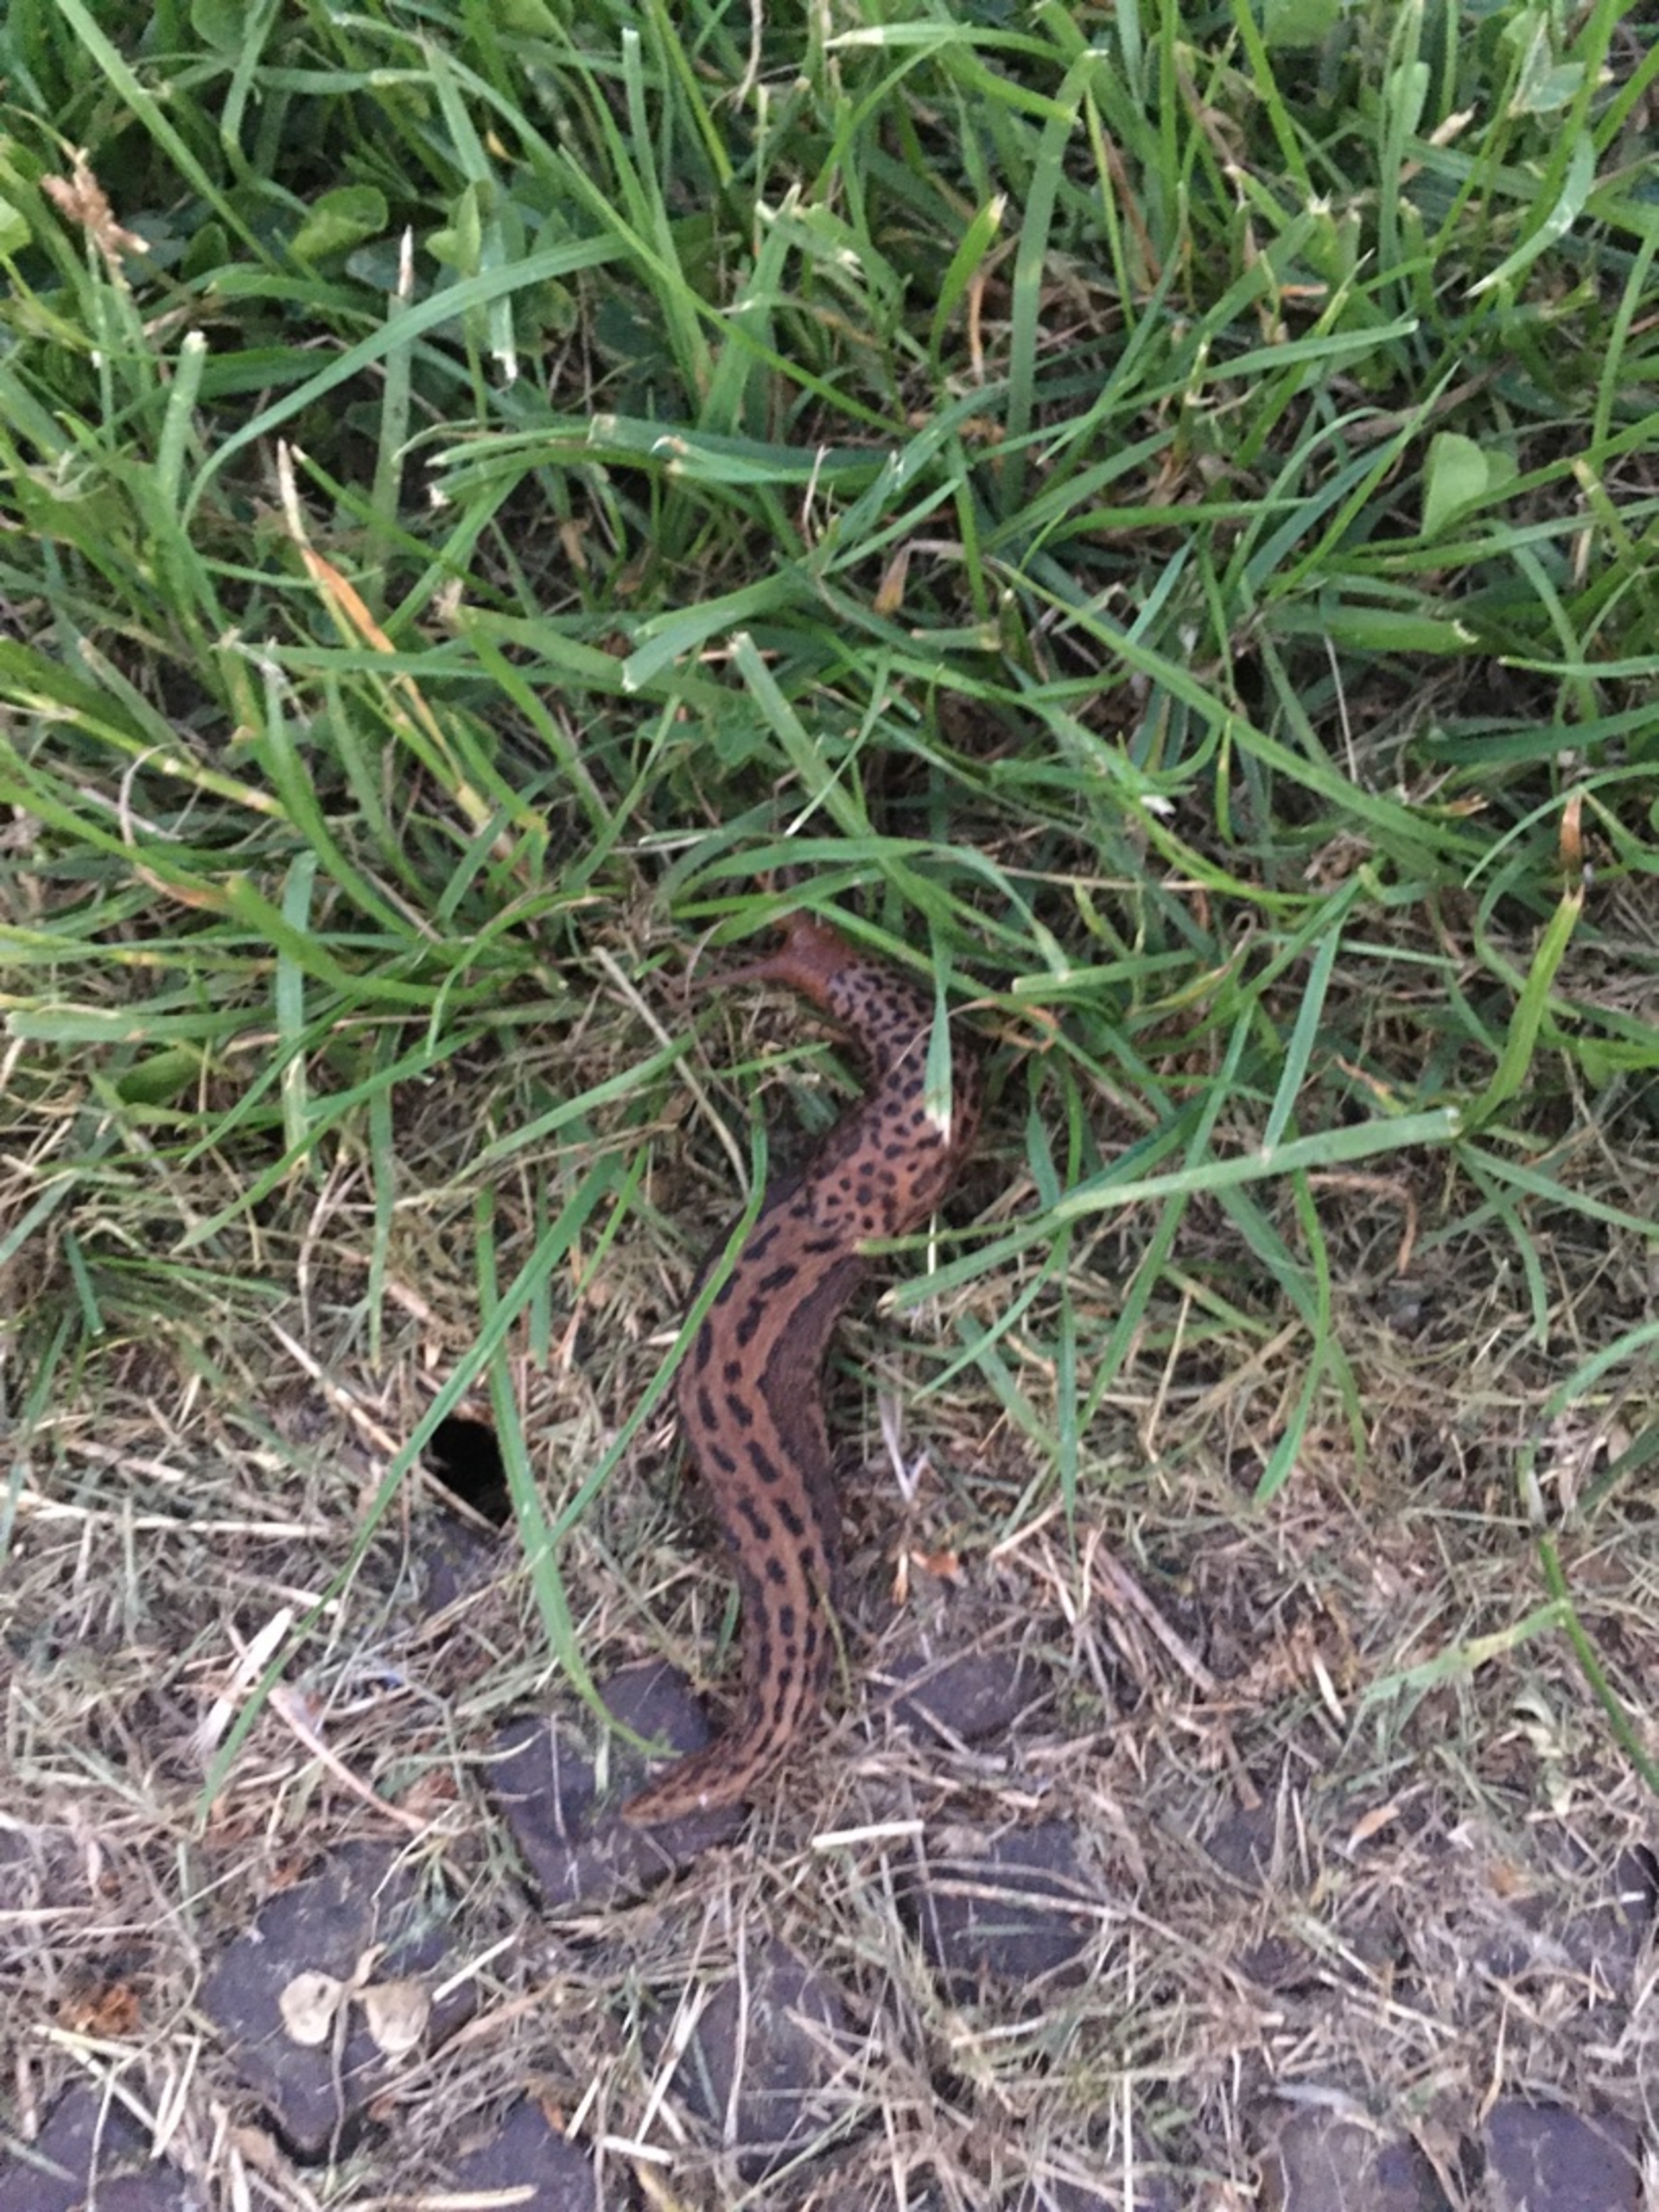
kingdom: Animalia
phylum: Mollusca
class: Gastropoda
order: Stylommatophora
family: Limacidae
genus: Limax
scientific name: Limax maximus
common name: Pantersnegl
